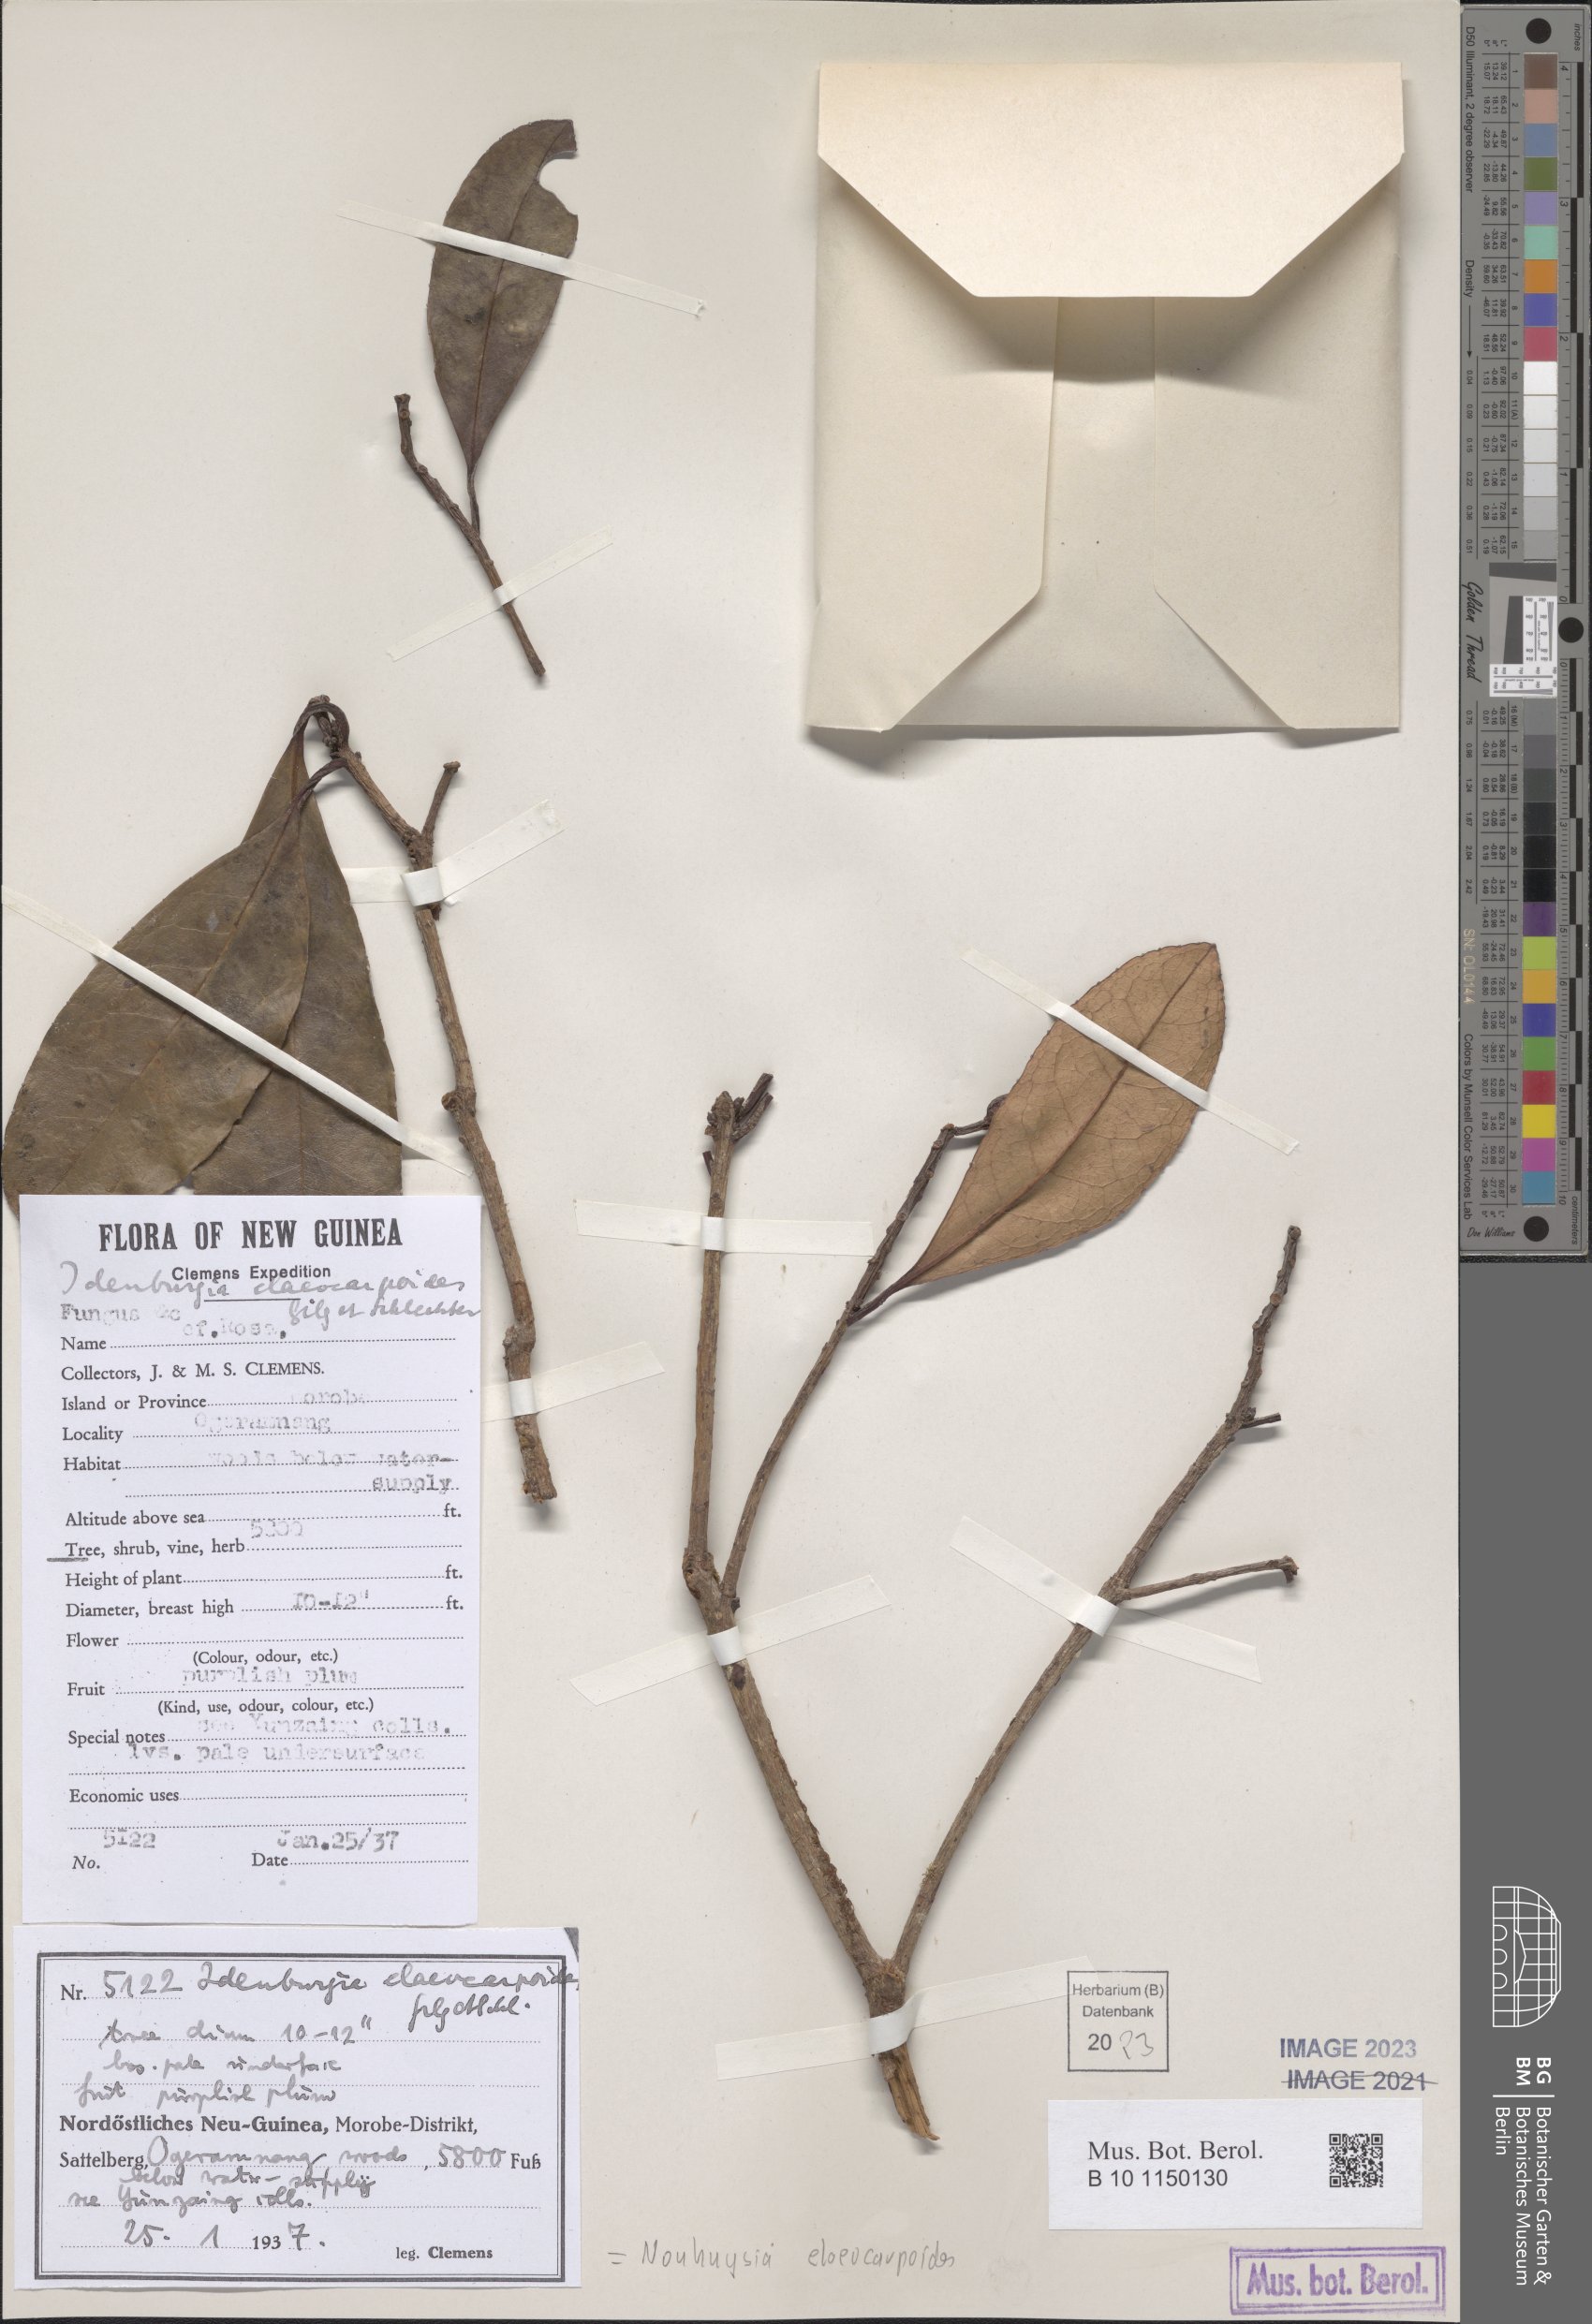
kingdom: Plantae
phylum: Tracheophyta
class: Magnoliopsida
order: Paracryphiales
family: Paracryphiaceae
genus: Sphenostemon
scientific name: Sphenostemon papuanus
